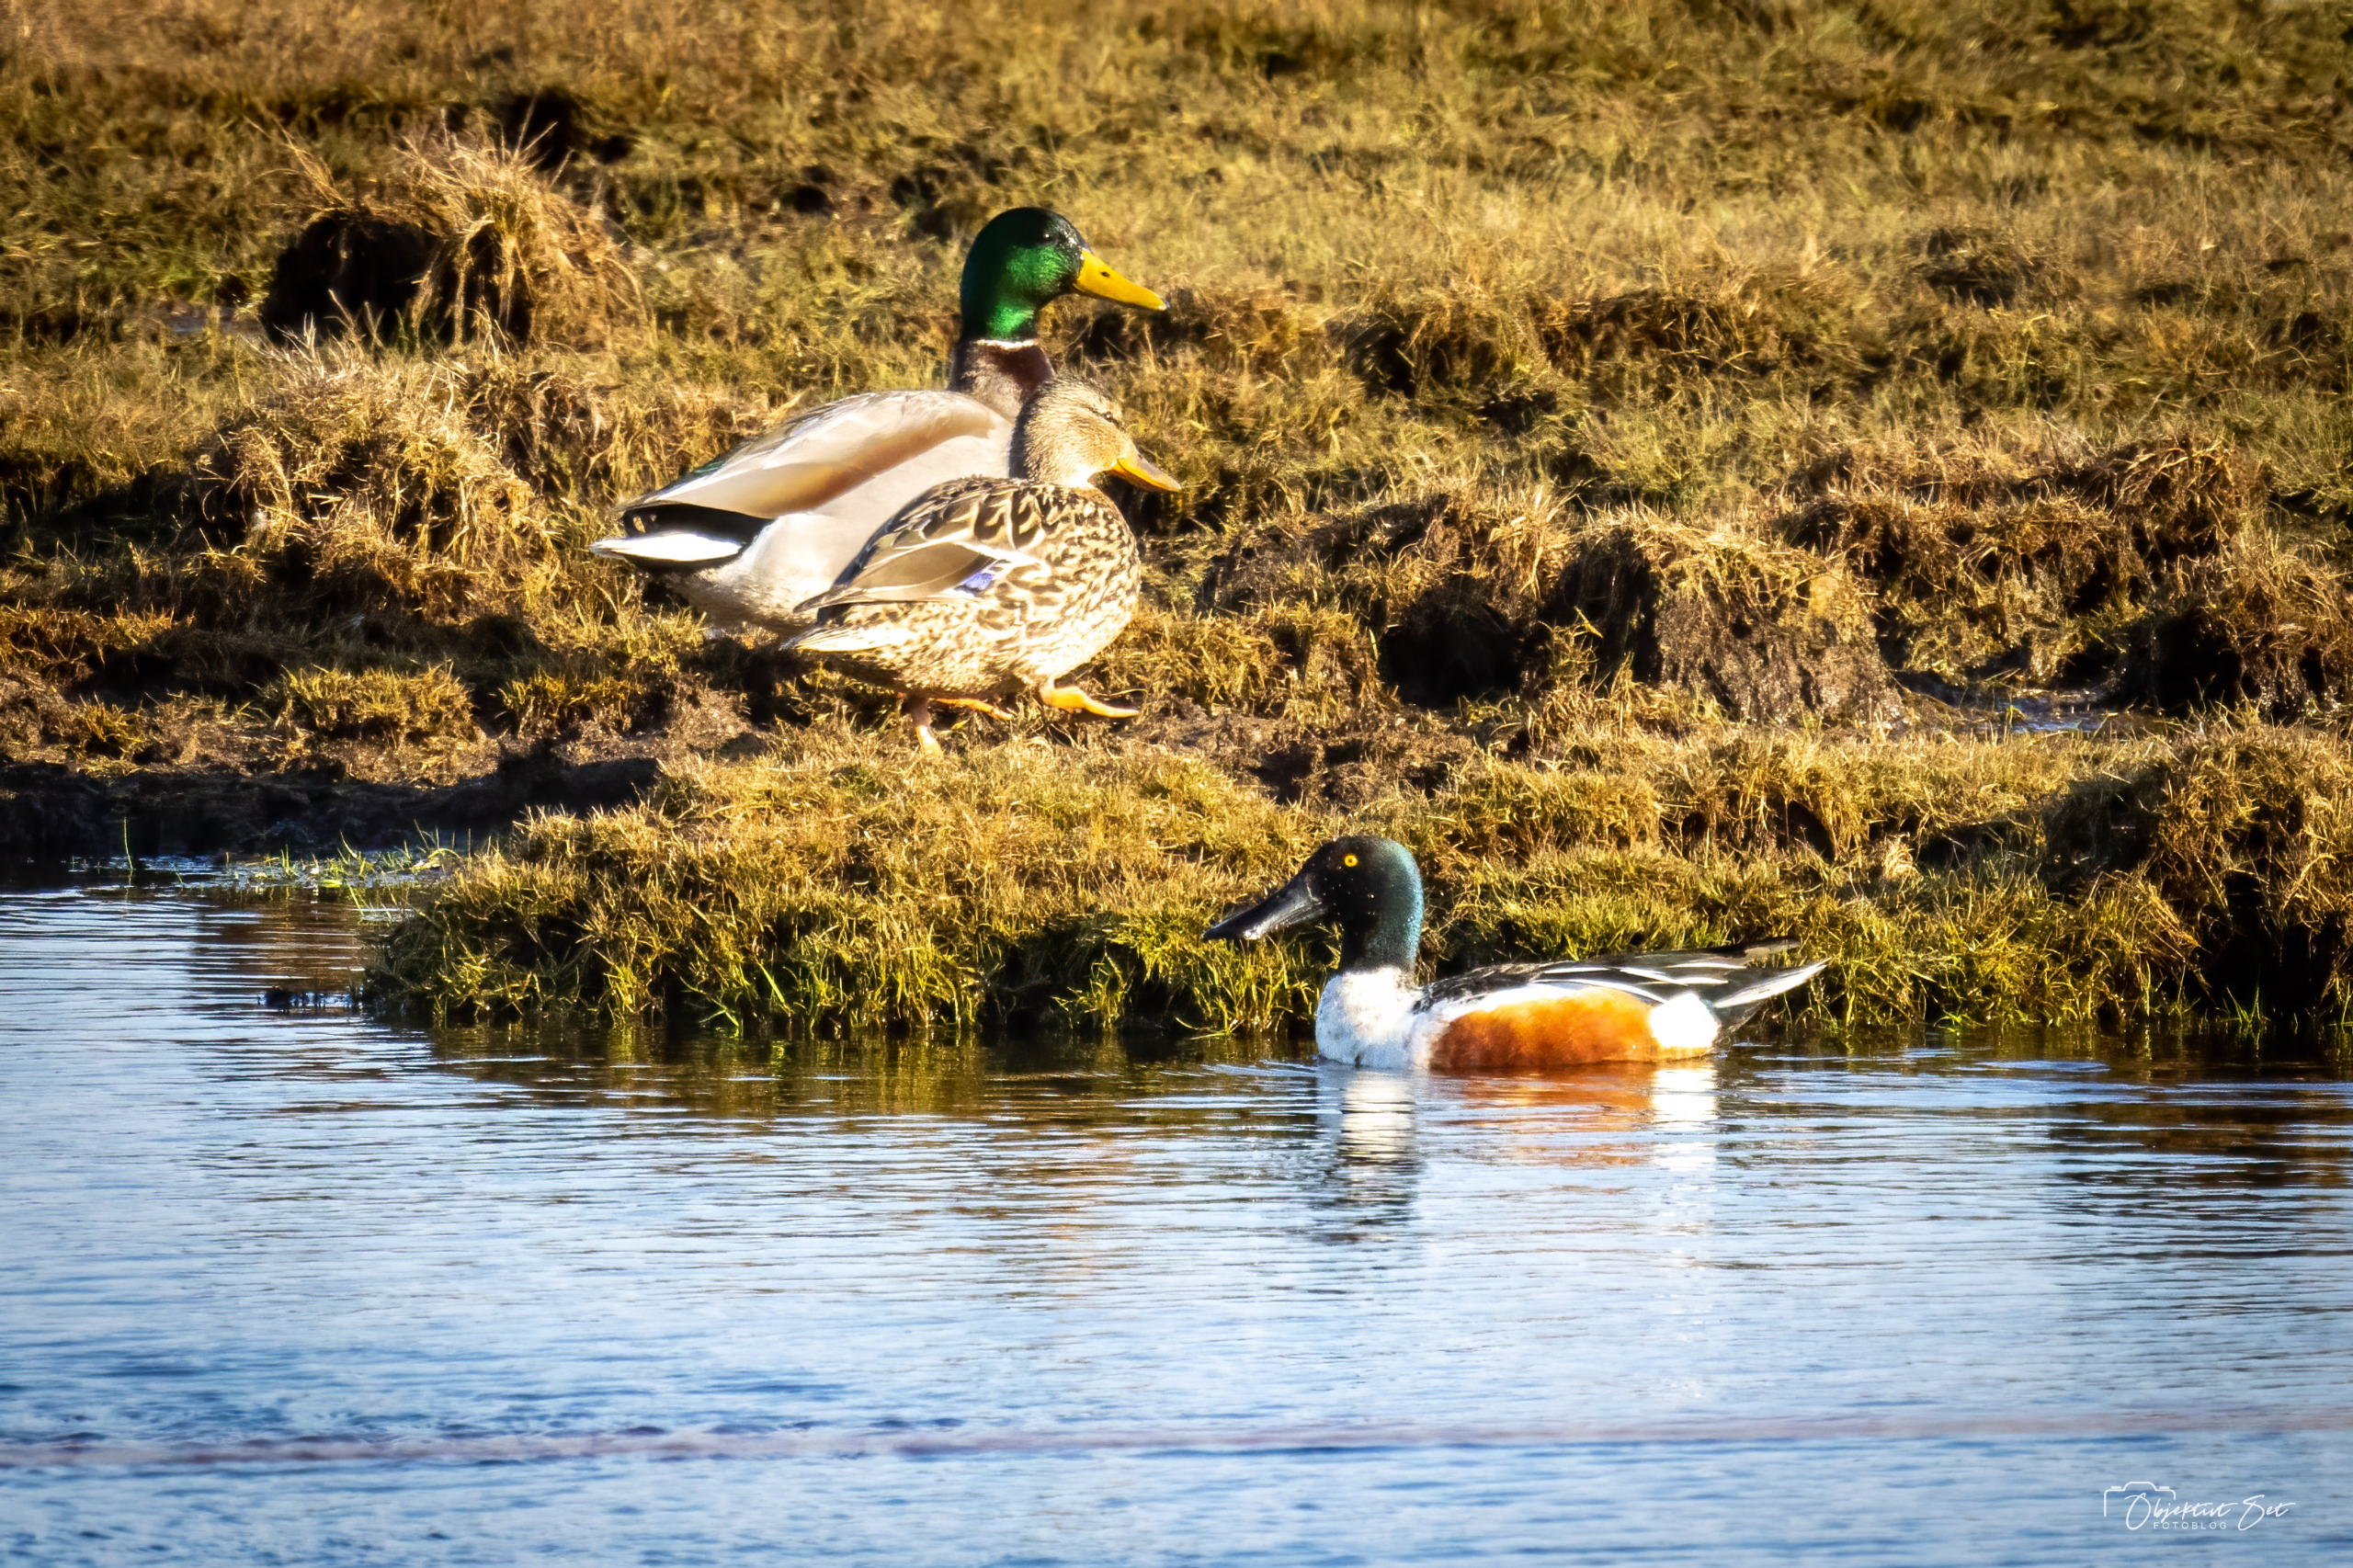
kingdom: Animalia
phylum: Chordata
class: Aves
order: Anseriformes
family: Anatidae
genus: Spatula
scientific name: Spatula clypeata
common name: Skeand
